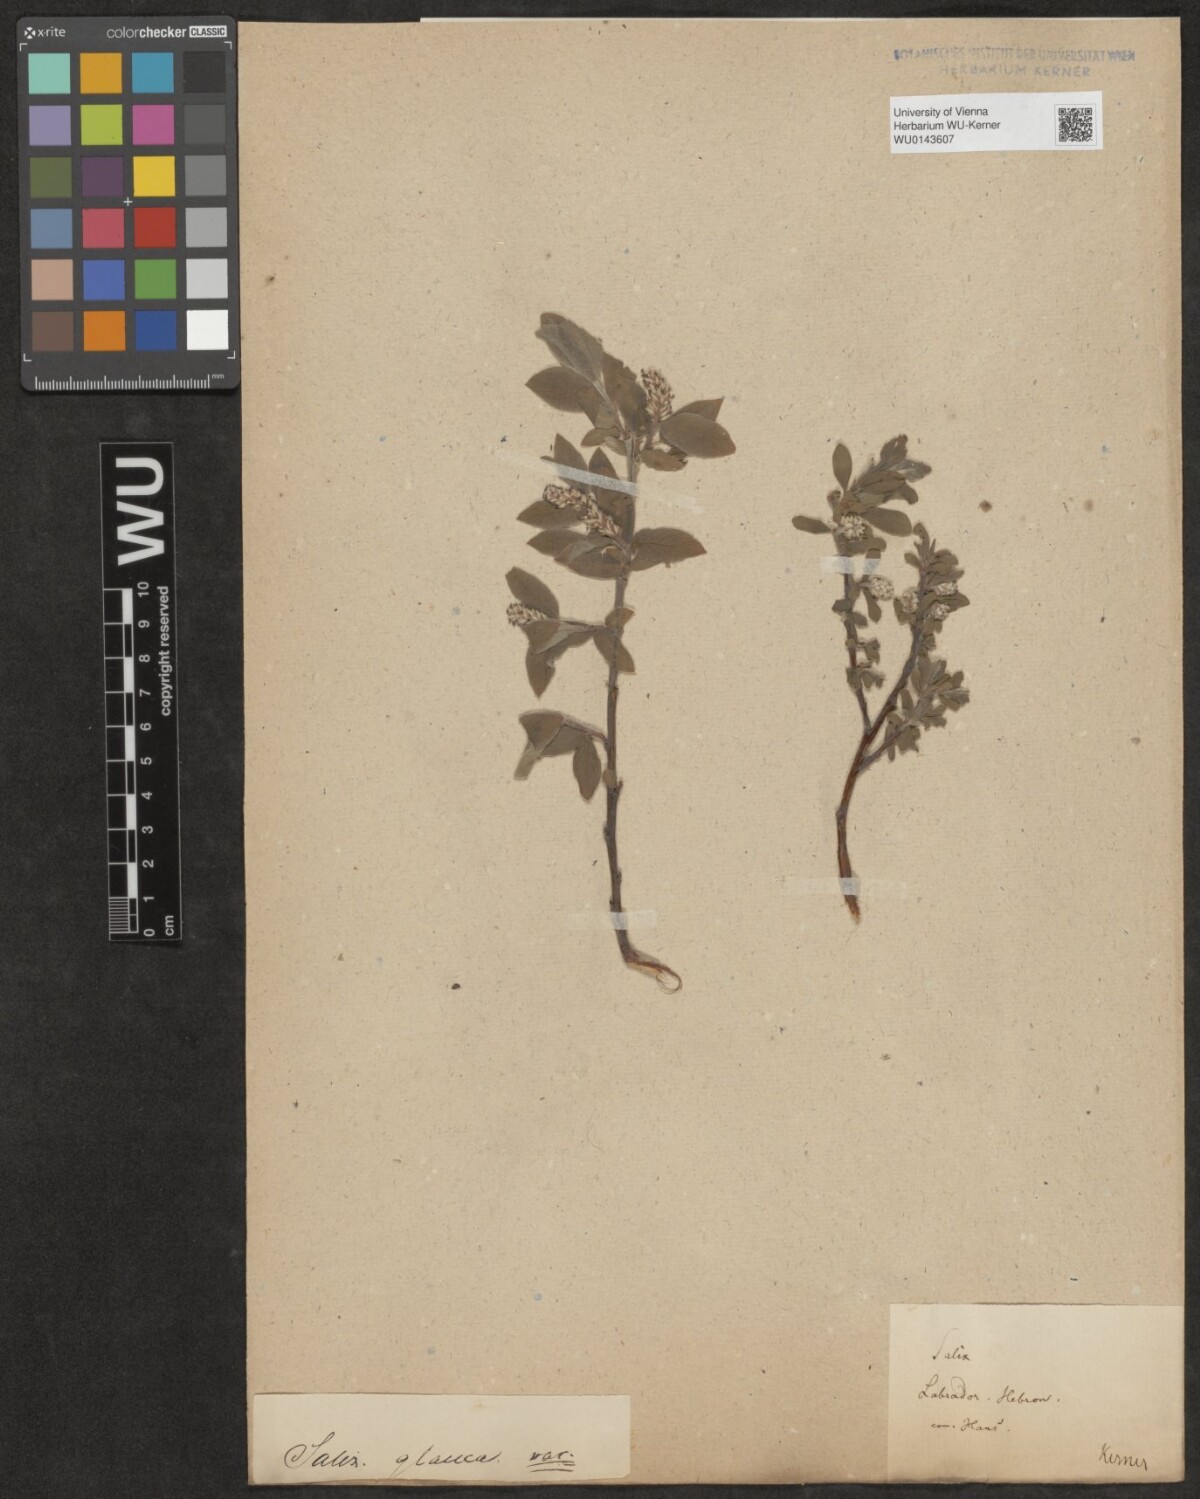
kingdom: Plantae
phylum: Tracheophyta
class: Magnoliopsida
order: Malpighiales
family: Salicaceae
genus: Salix
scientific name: Salix
